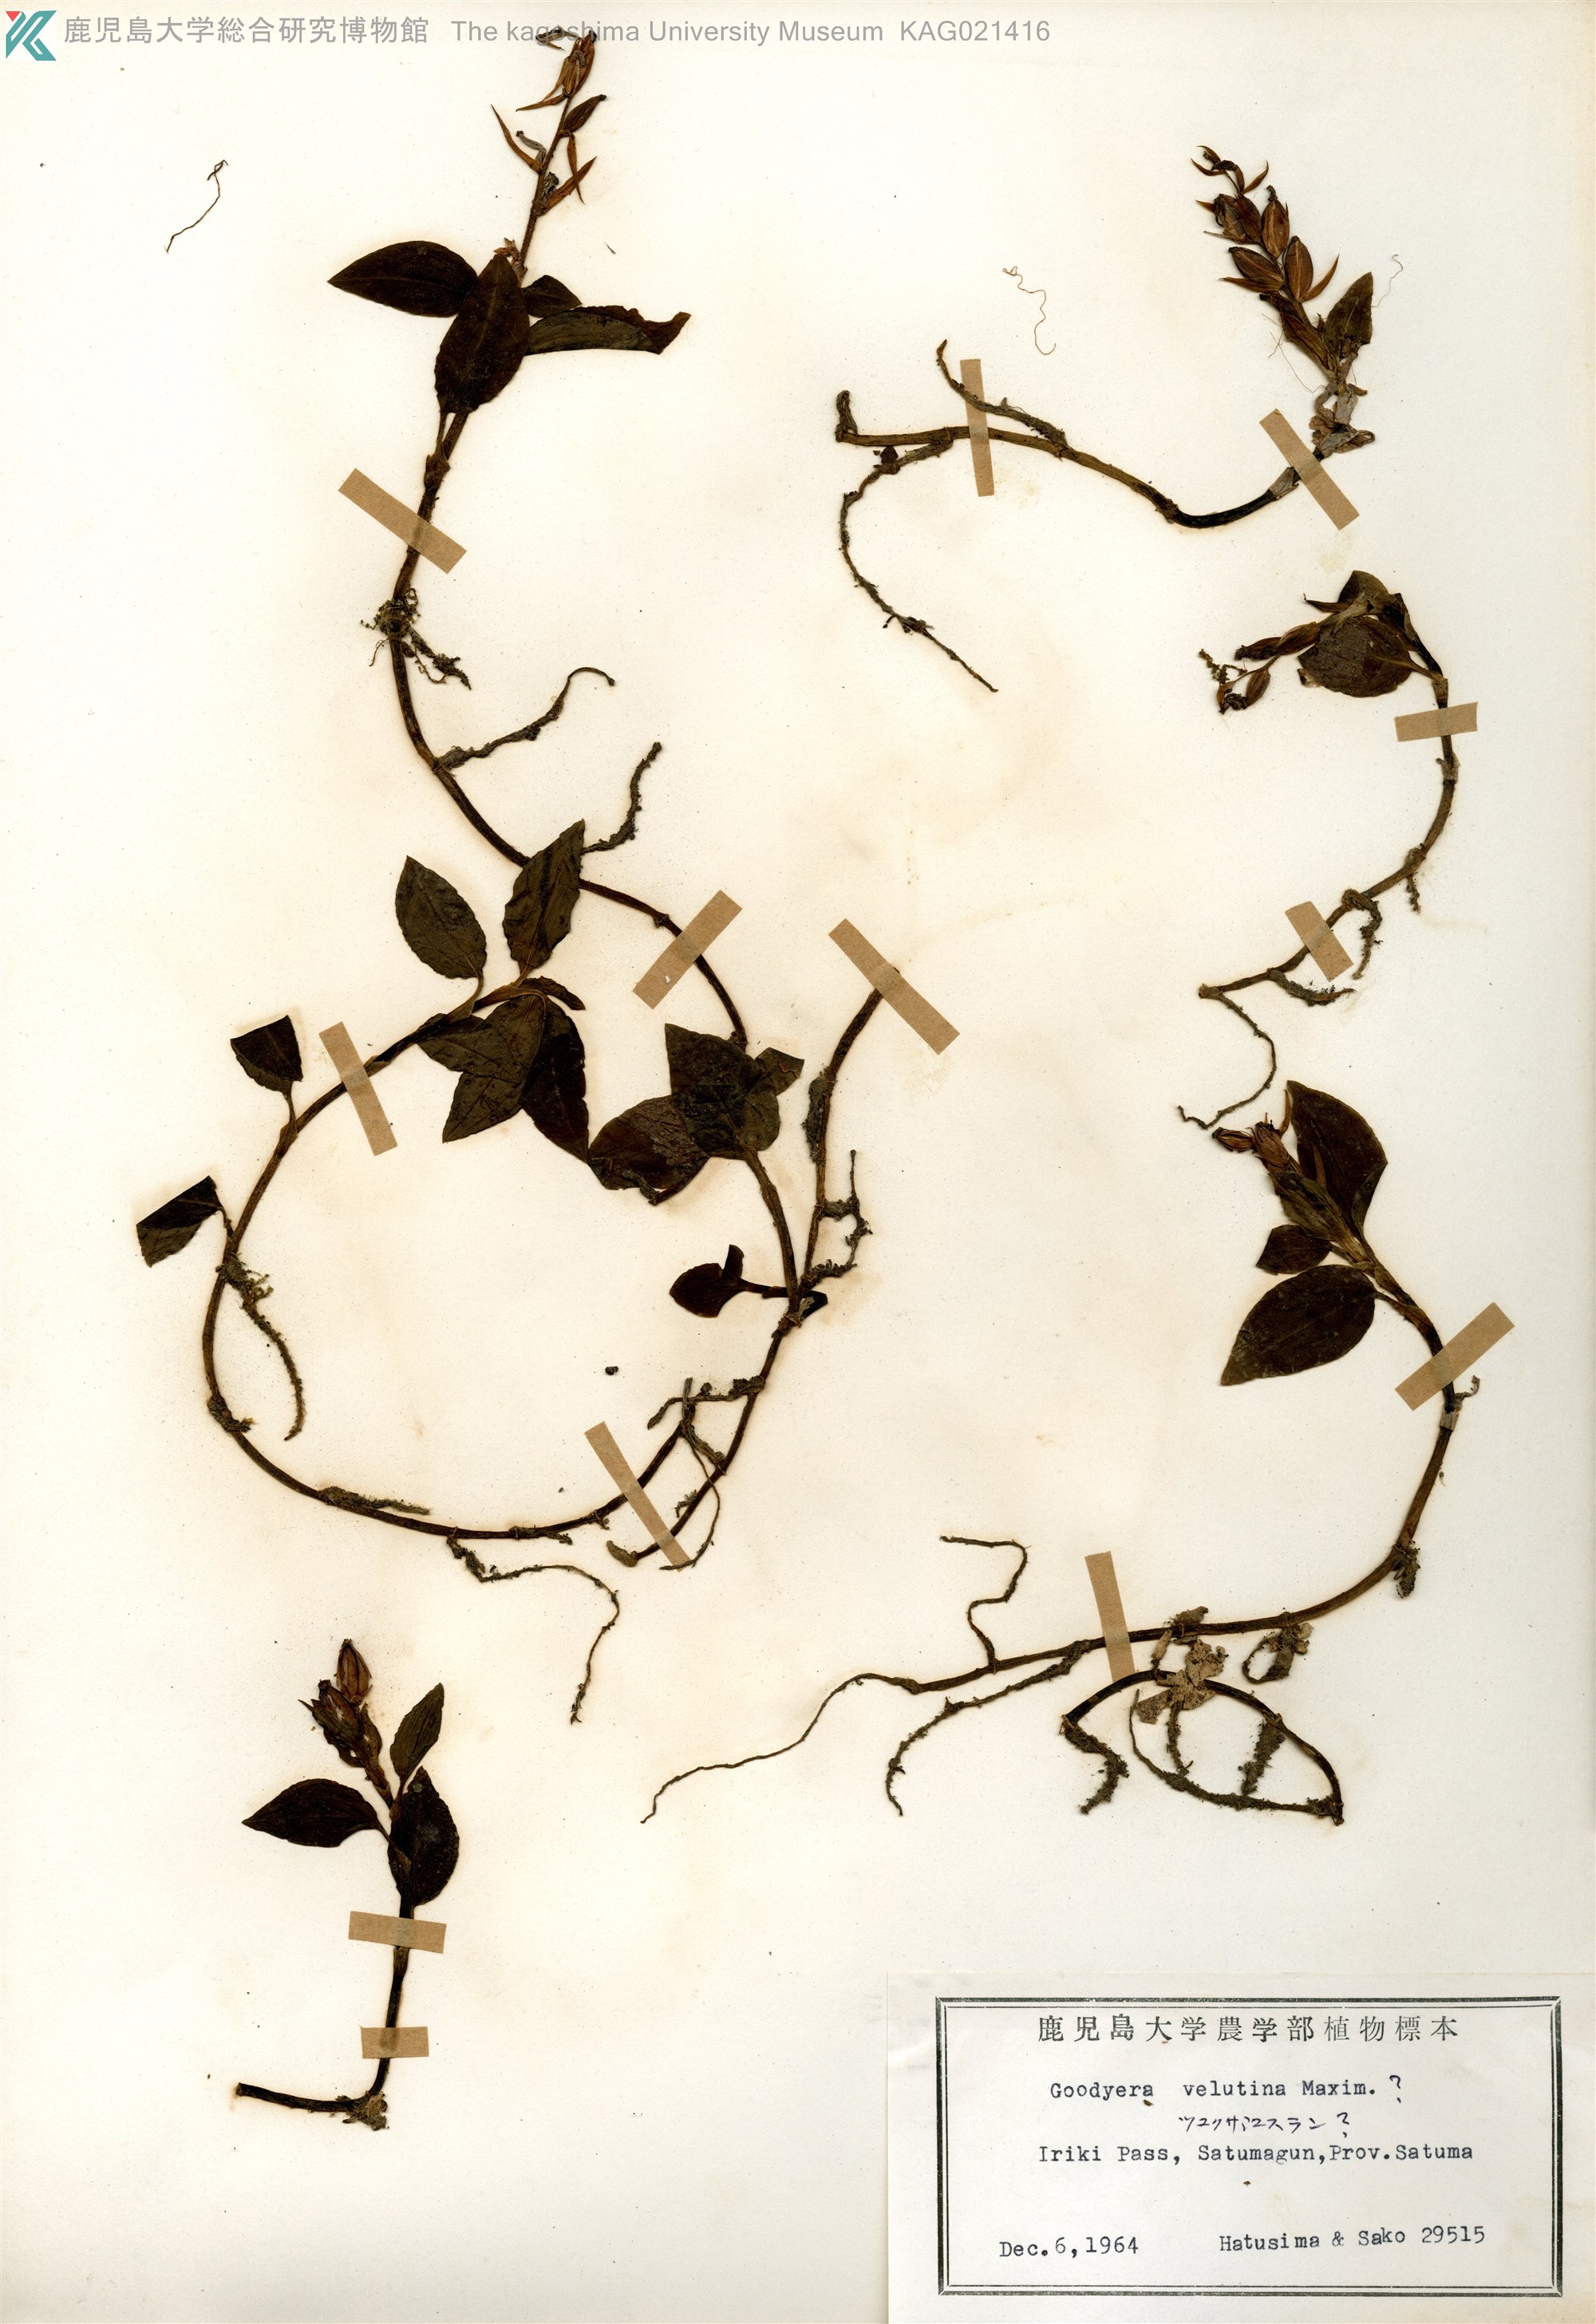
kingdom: Plantae
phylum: Tracheophyta
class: Liliopsida
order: Asparagales
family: Orchidaceae
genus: Goodyera
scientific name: Goodyera foliosa
